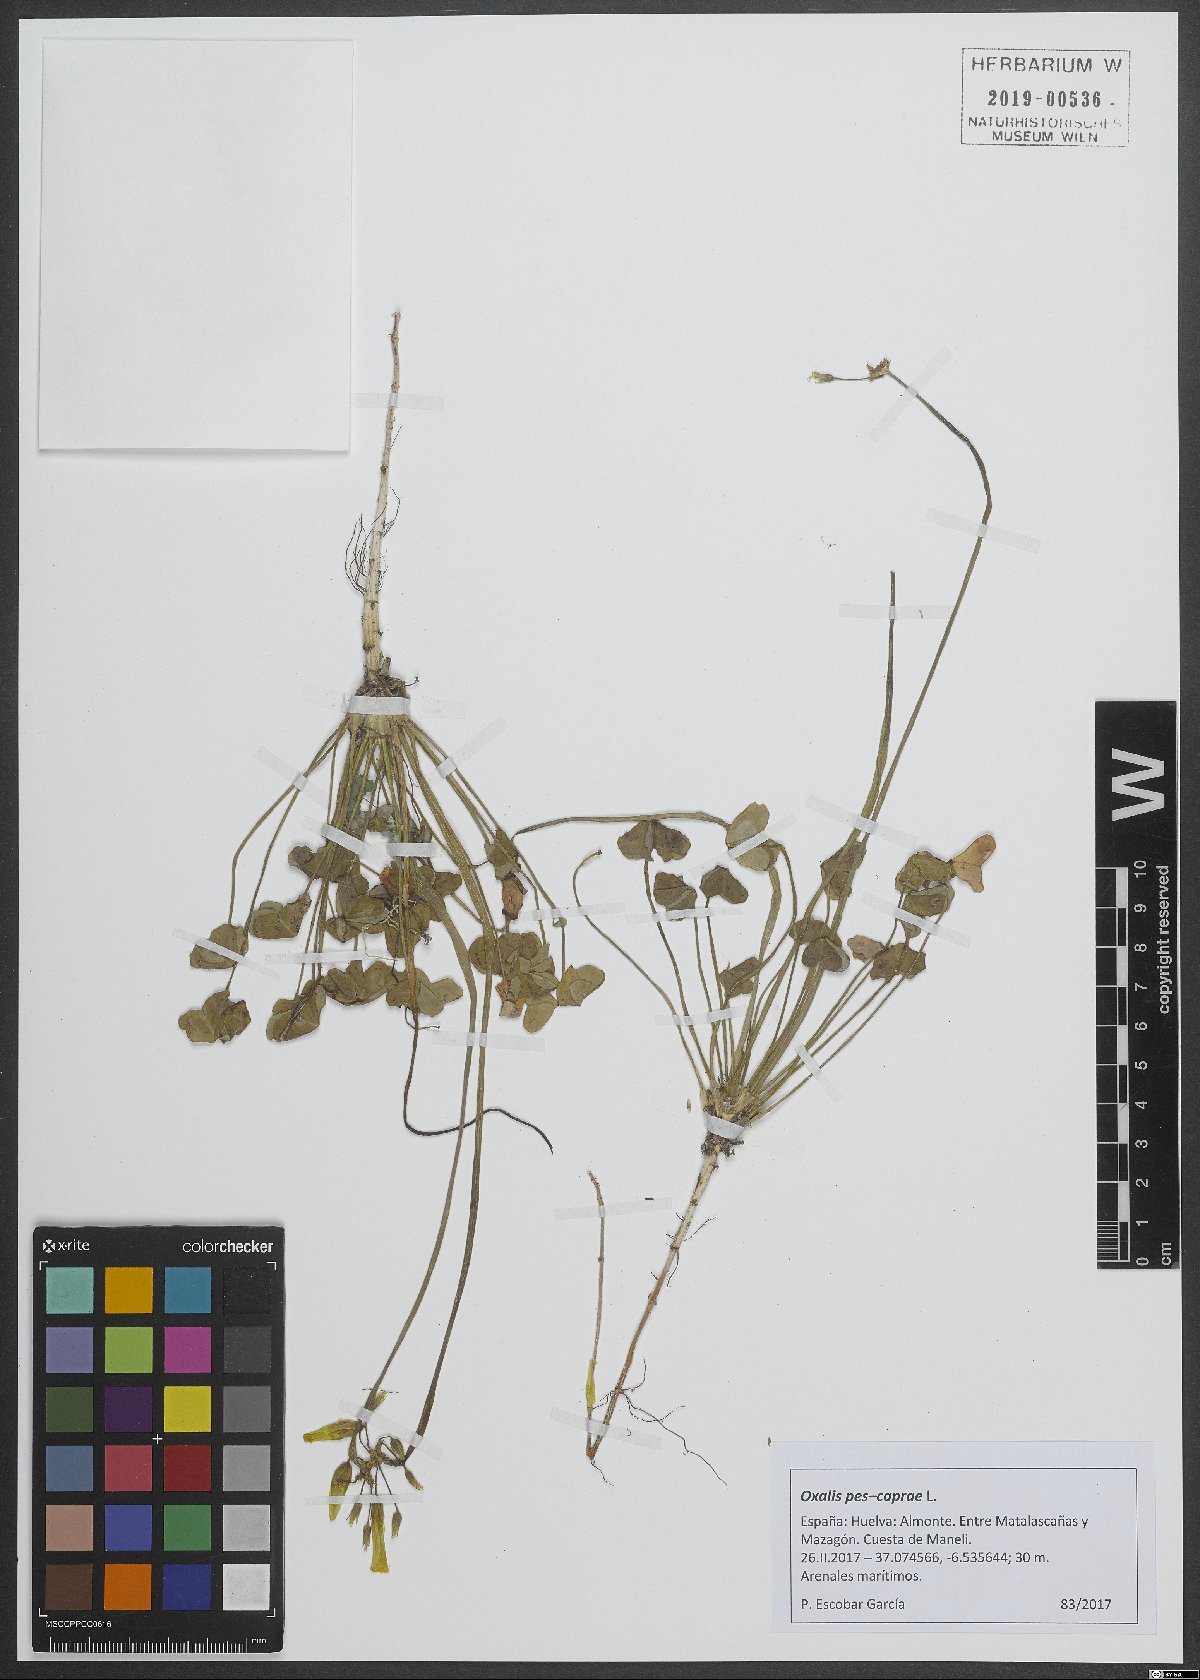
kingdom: Plantae
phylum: Tracheophyta
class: Magnoliopsida
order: Oxalidales
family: Oxalidaceae
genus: Oxalis
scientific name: Oxalis pes-caprae
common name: Bermuda-buttercup
